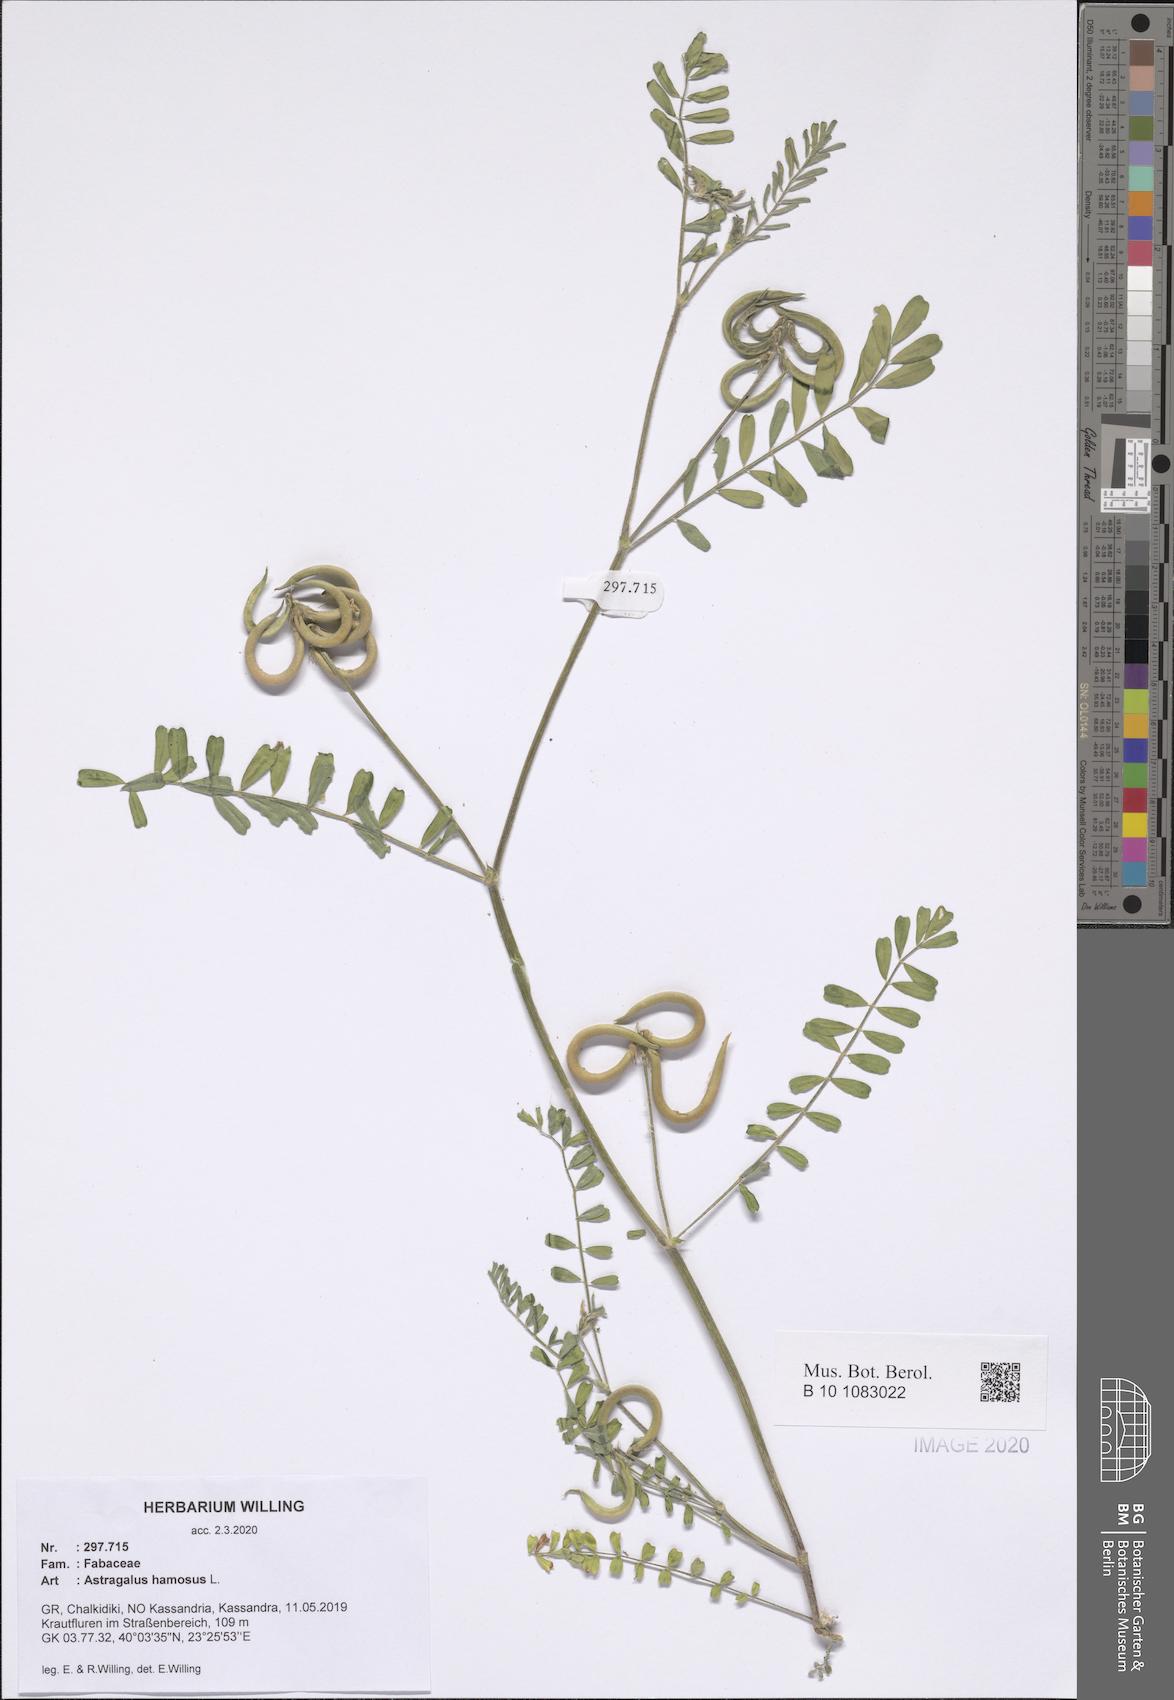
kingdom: Plantae
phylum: Tracheophyta
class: Magnoliopsida
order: Fabales
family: Fabaceae
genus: Astragalus
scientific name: Astragalus hamosus
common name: European milkvetch
